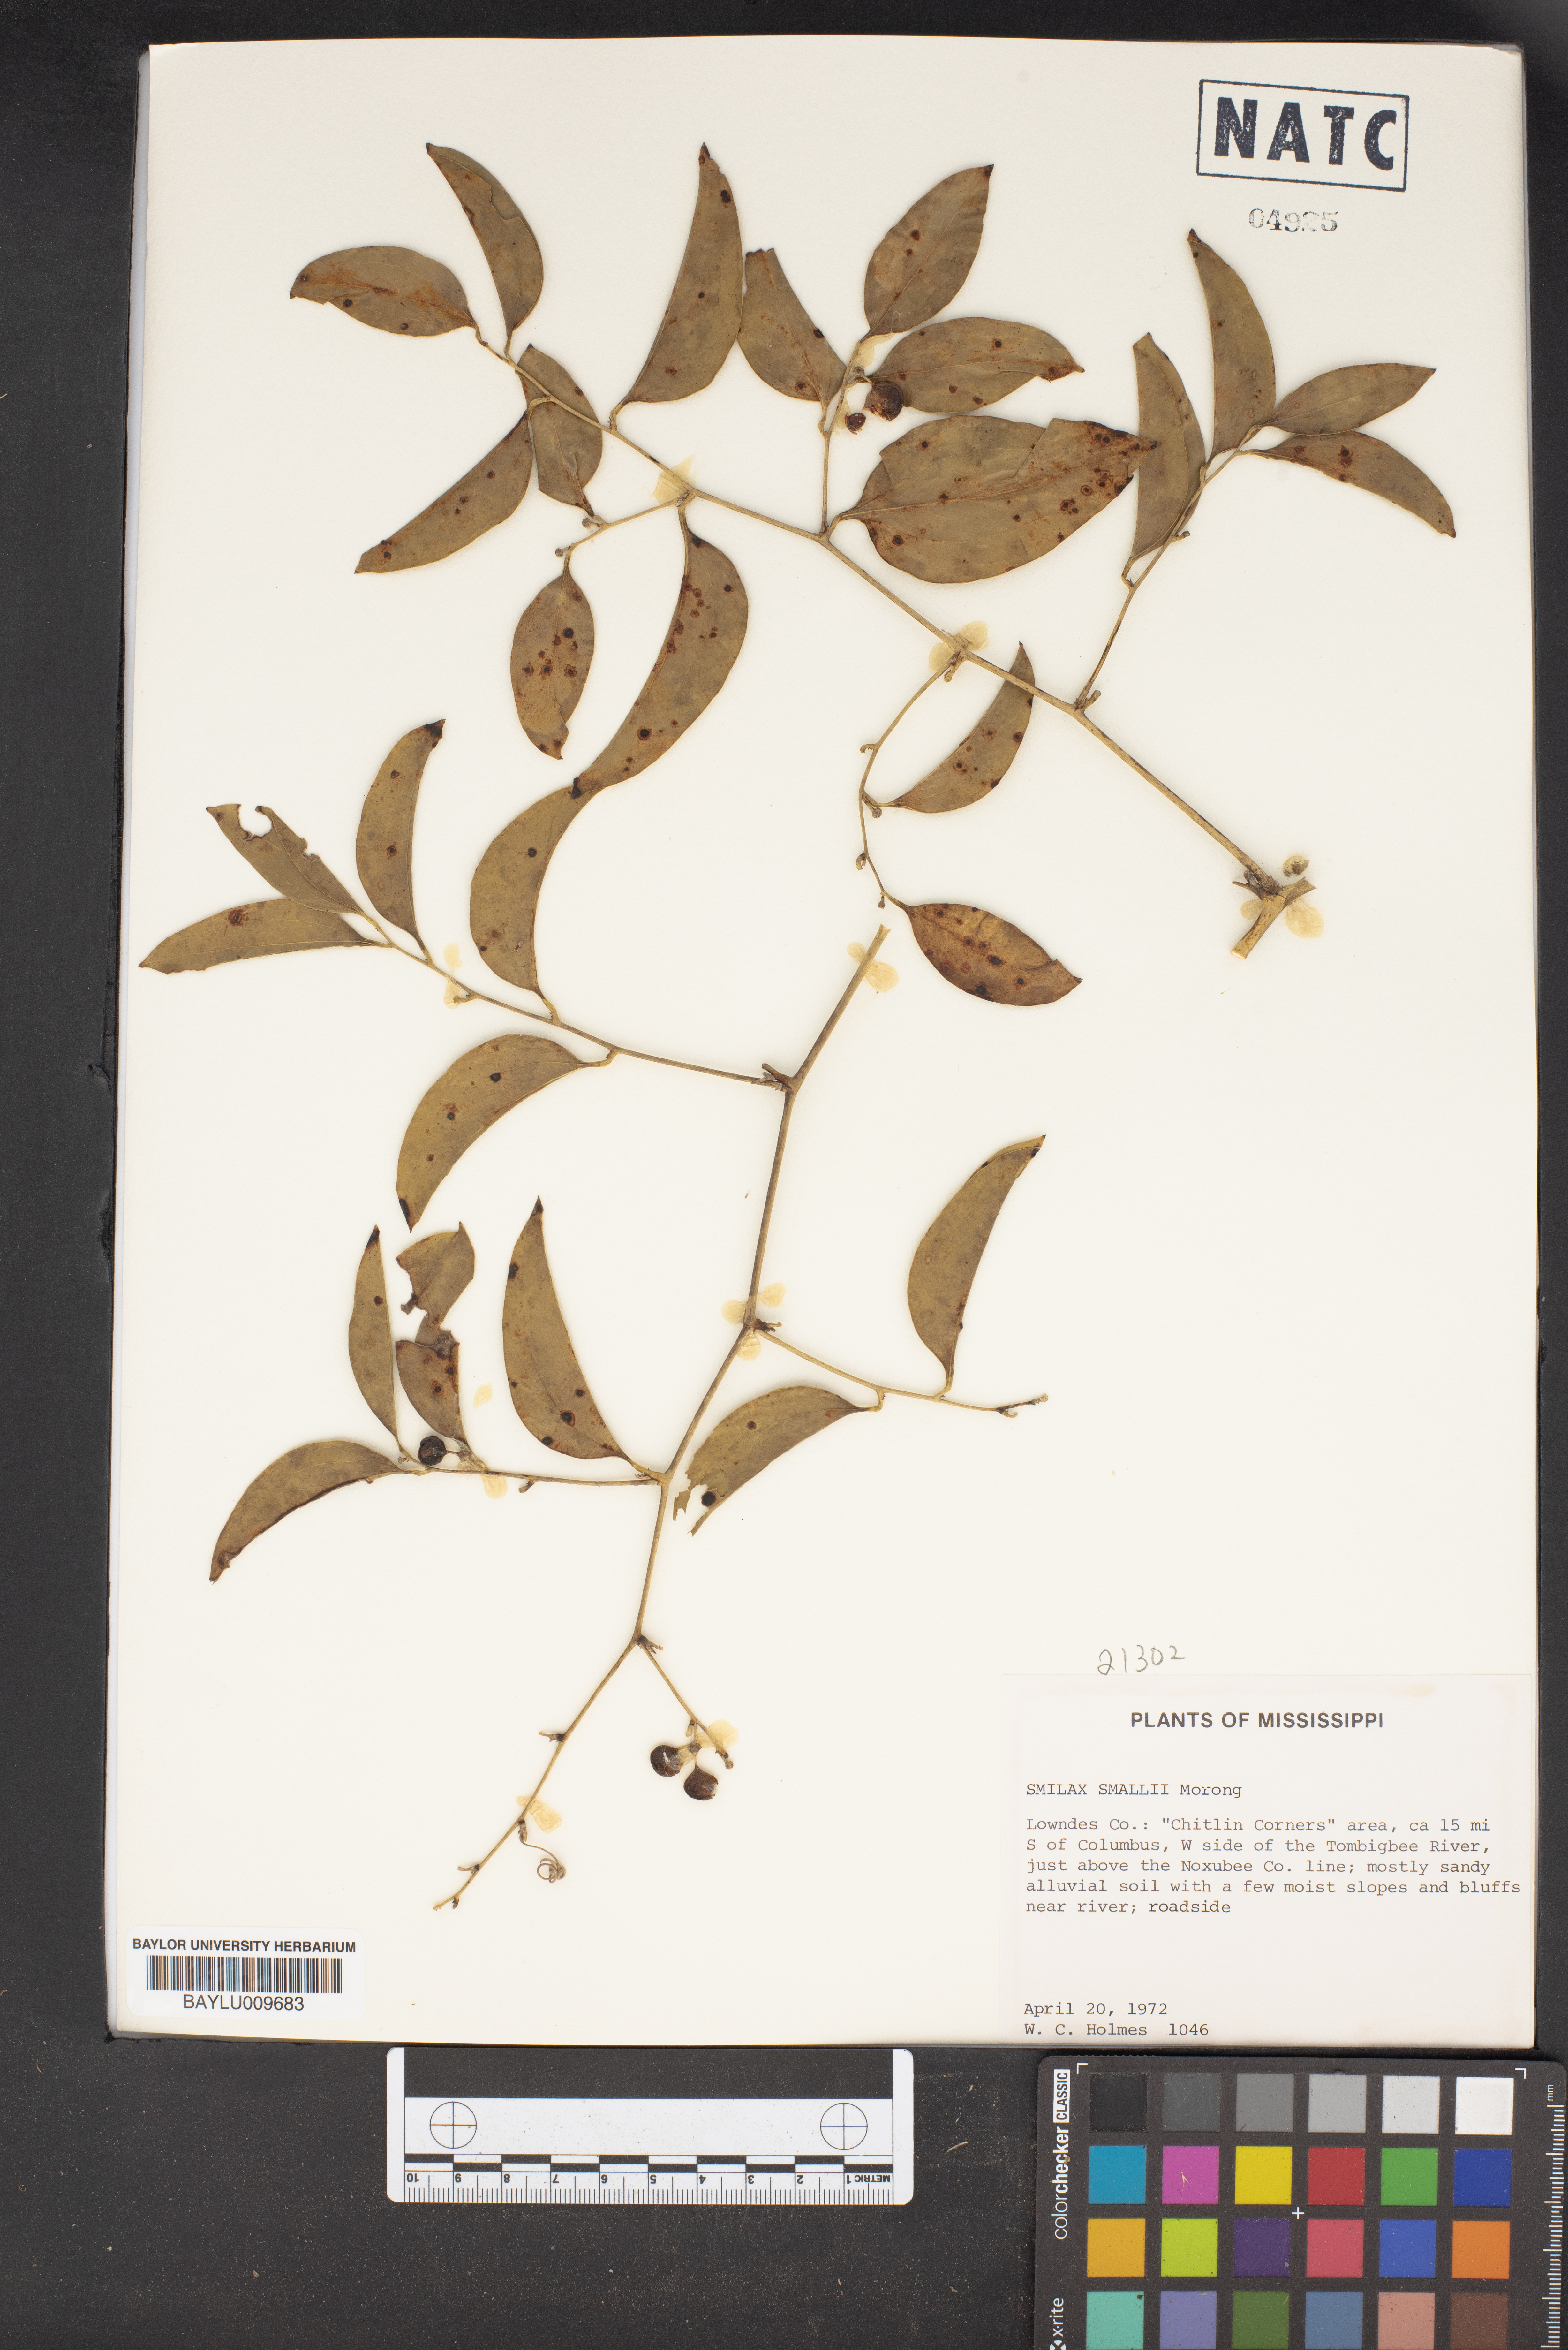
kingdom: Plantae
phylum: Tracheophyta
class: Liliopsida
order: Liliales
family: Smilacaceae
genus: Smilax
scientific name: Smilax maritima
